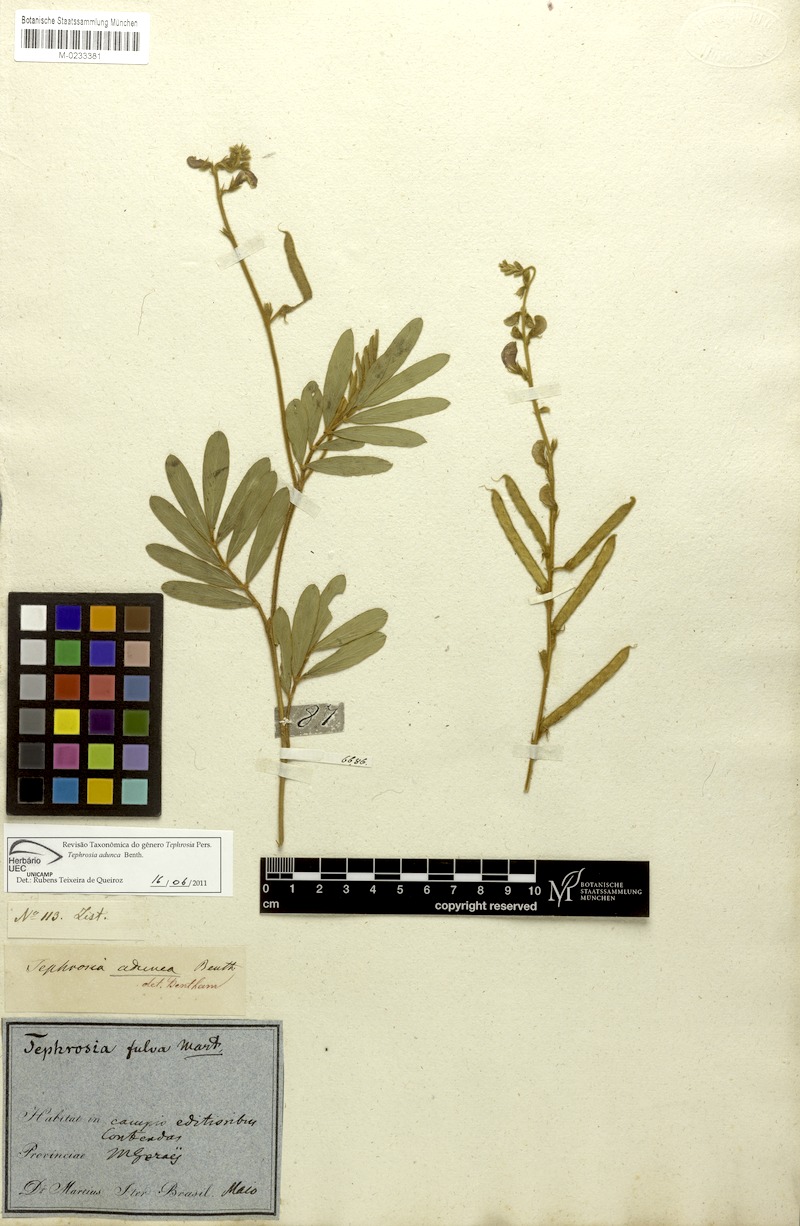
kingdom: Plantae
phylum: Tracheophyta
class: Magnoliopsida
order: Fabales
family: Fabaceae
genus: Tephrosia
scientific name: Tephrosia adunca
